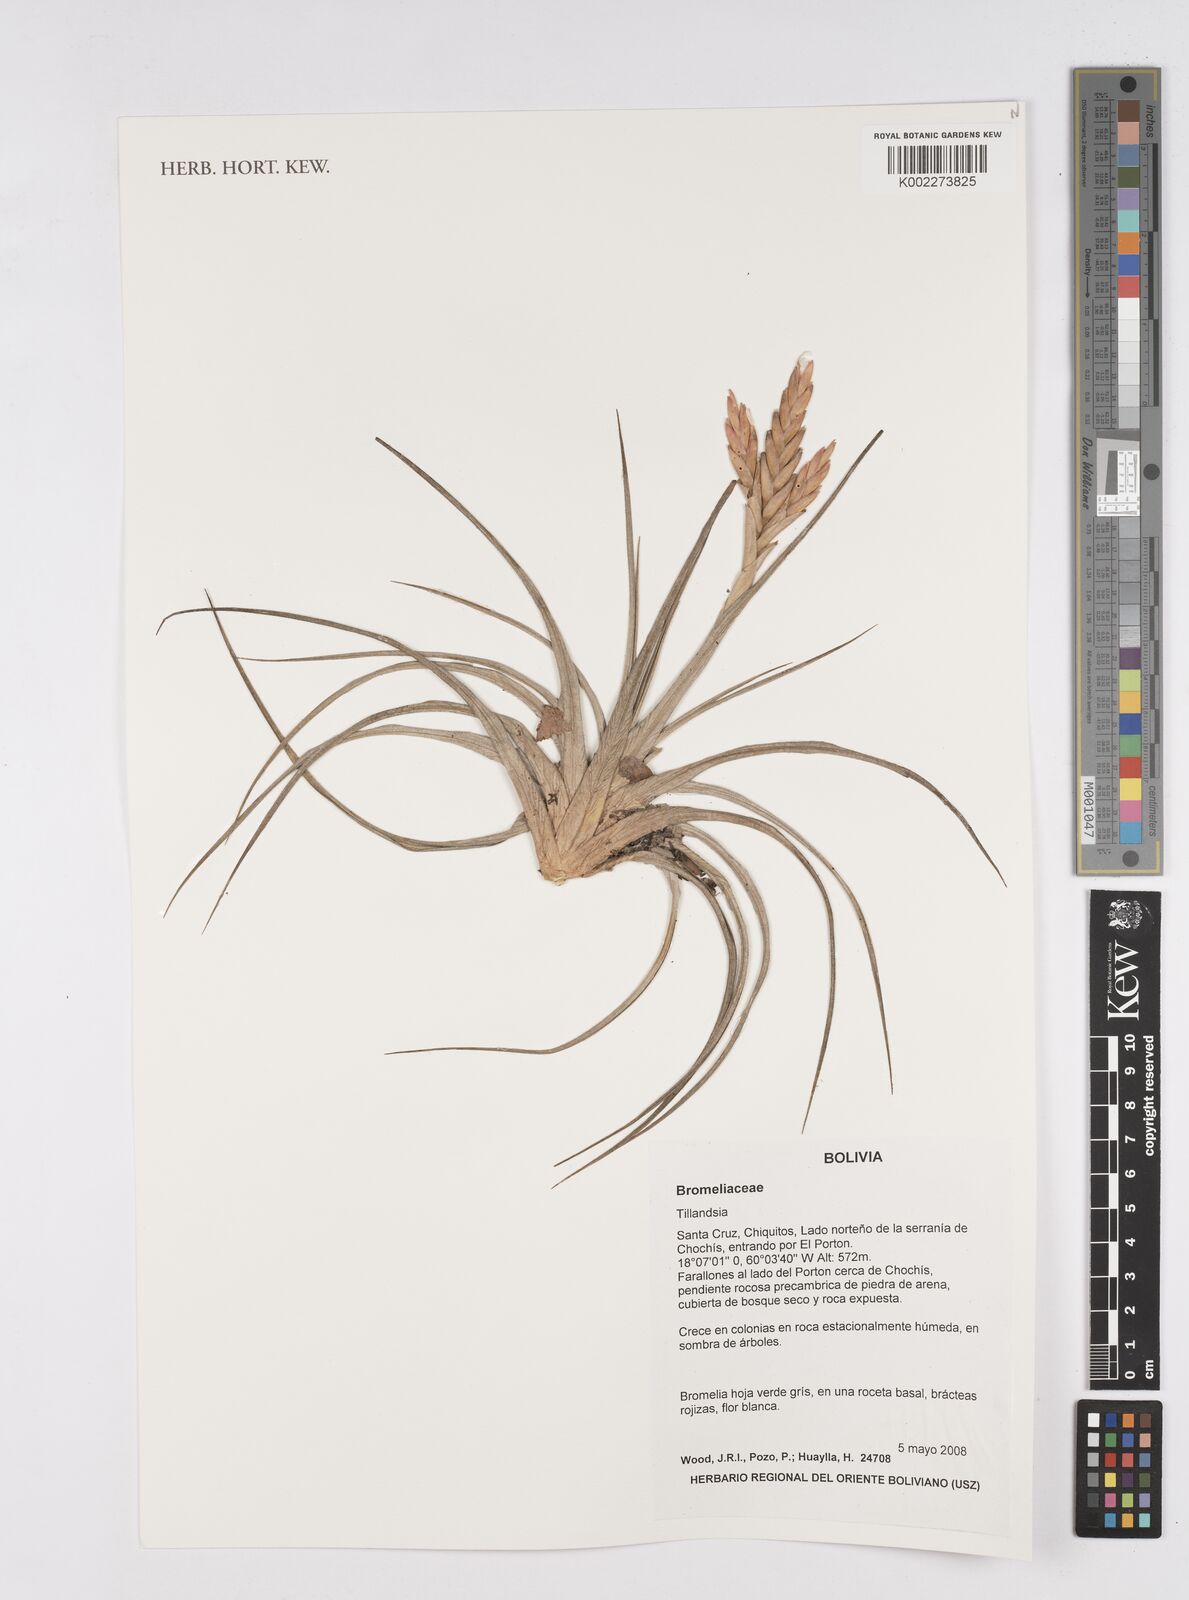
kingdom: Plantae
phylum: Tracheophyta
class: Liliopsida
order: Poales
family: Bromeliaceae
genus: Tillandsia
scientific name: Tillandsia
